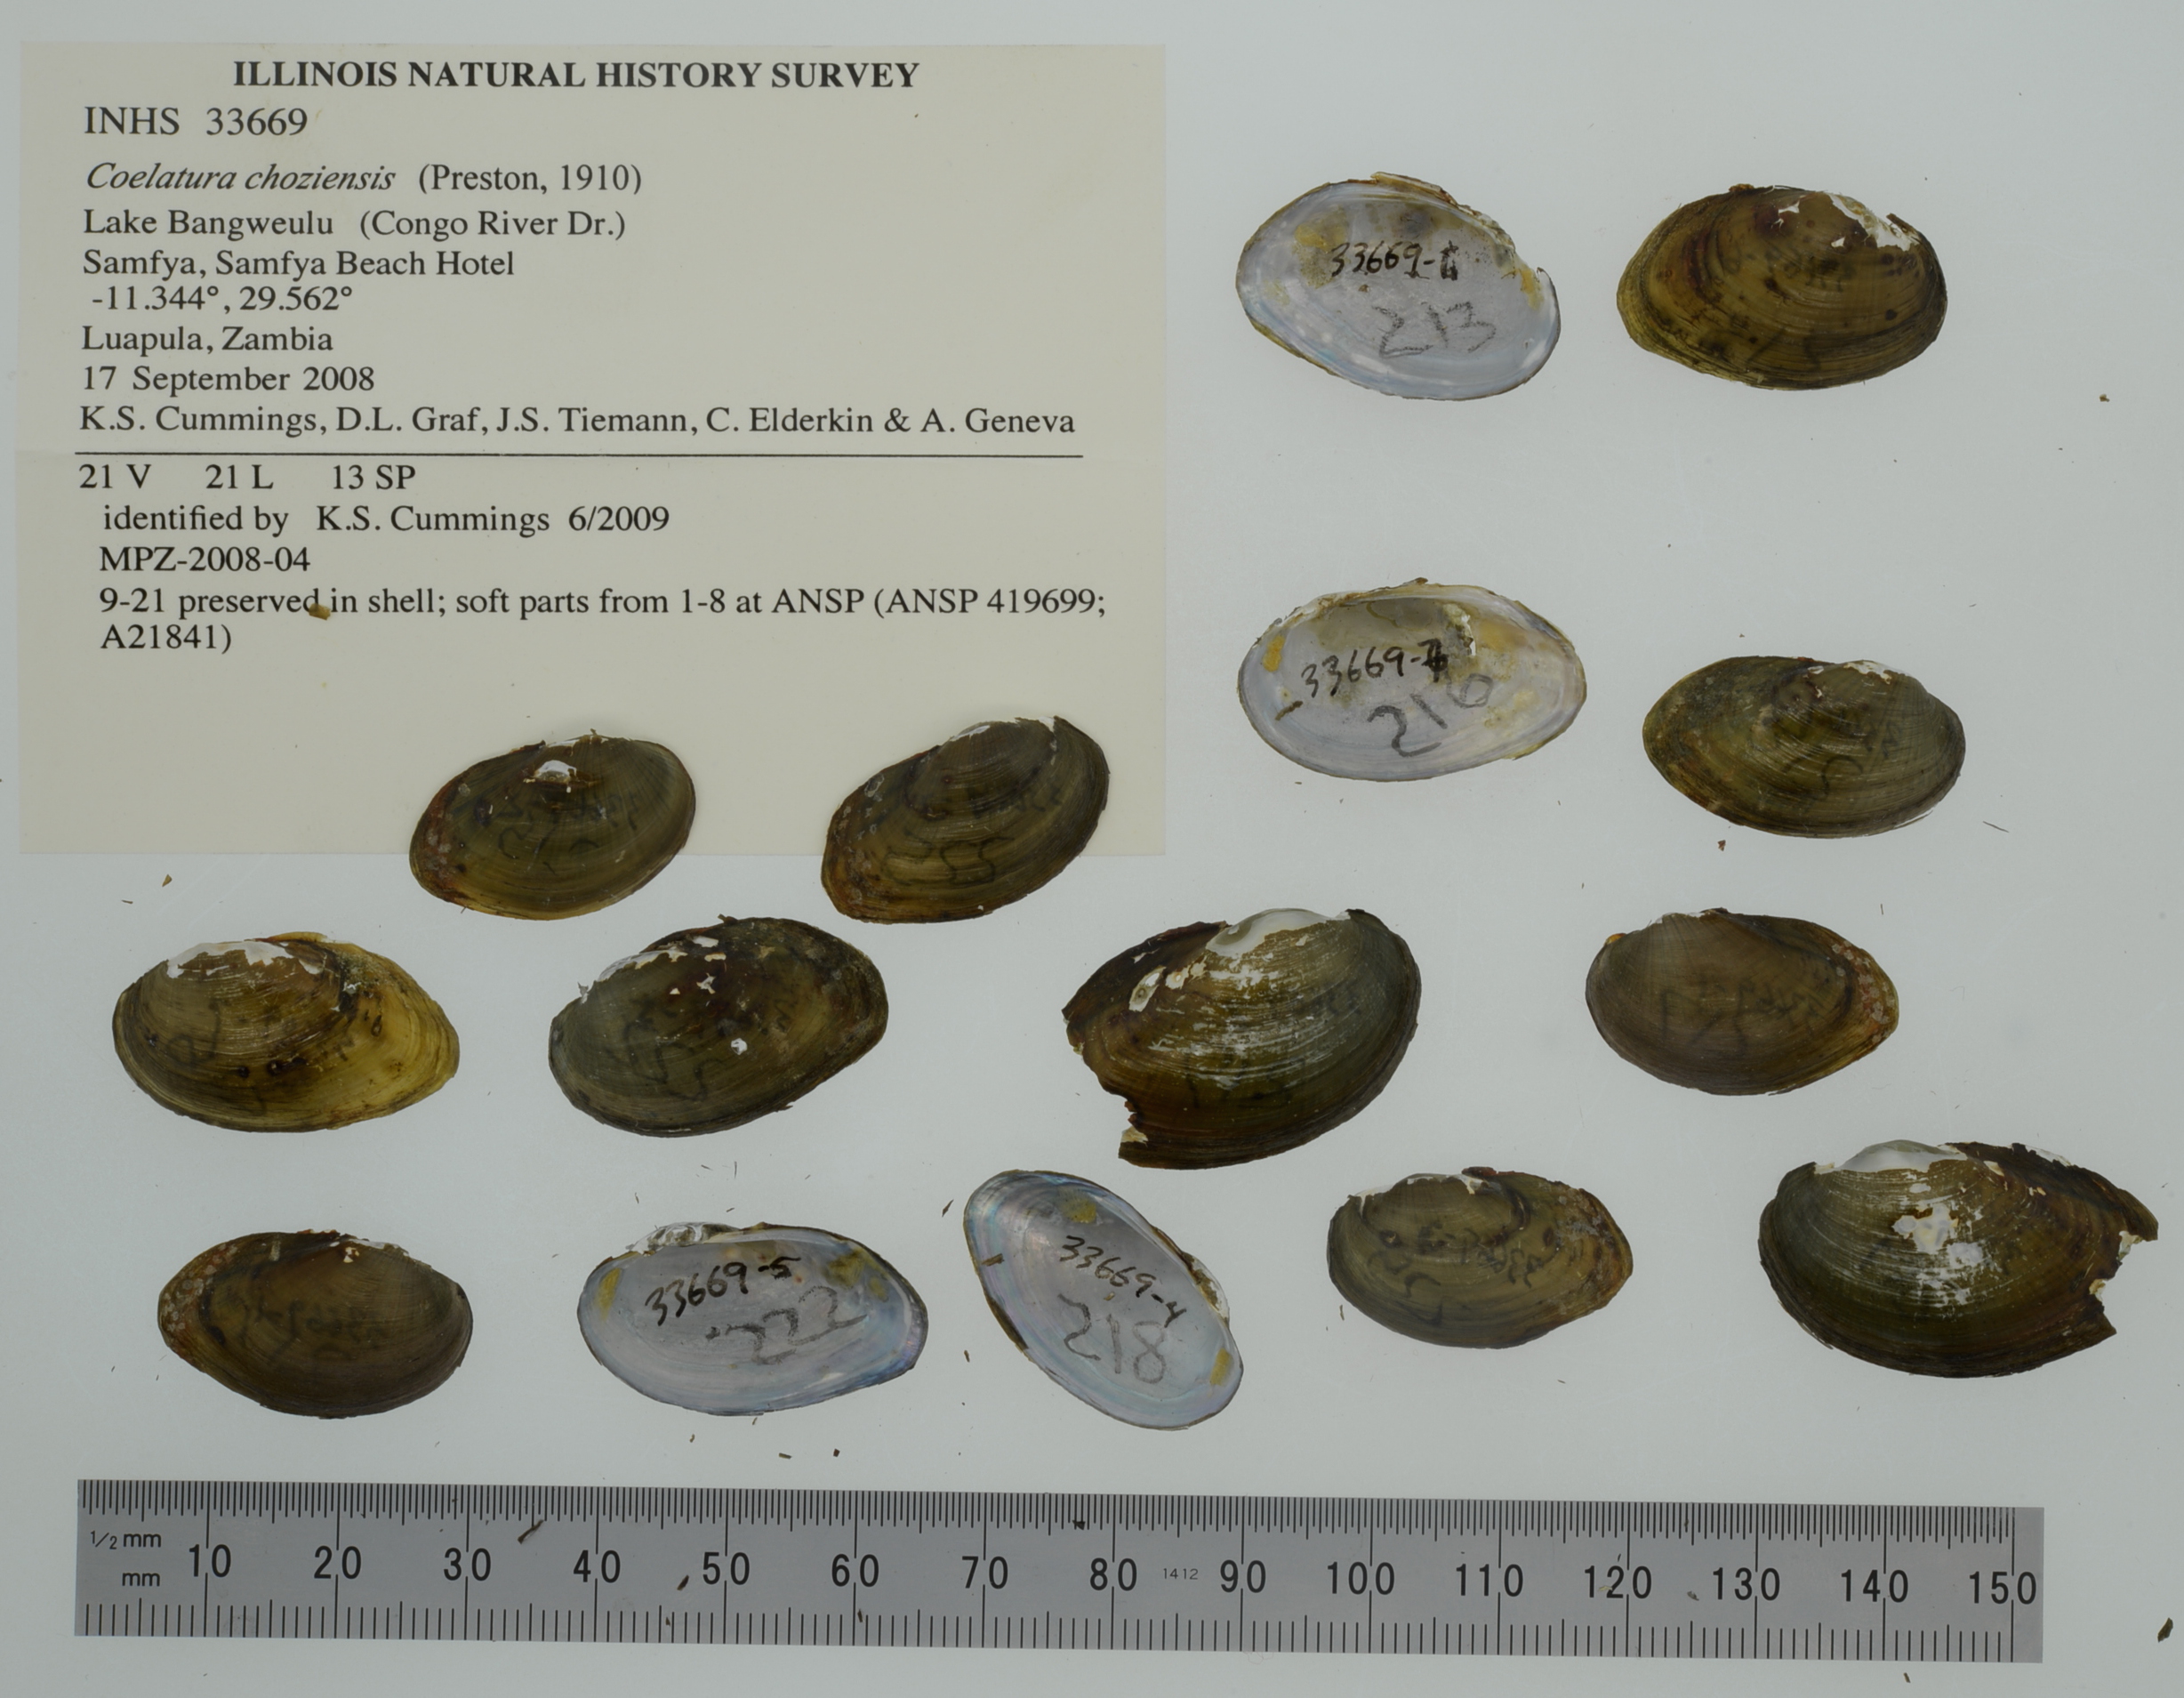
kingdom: Animalia
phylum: Mollusca
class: Bivalvia
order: Unionida
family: Unionidae
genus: Coelatura
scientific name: Coelatura choziensis
